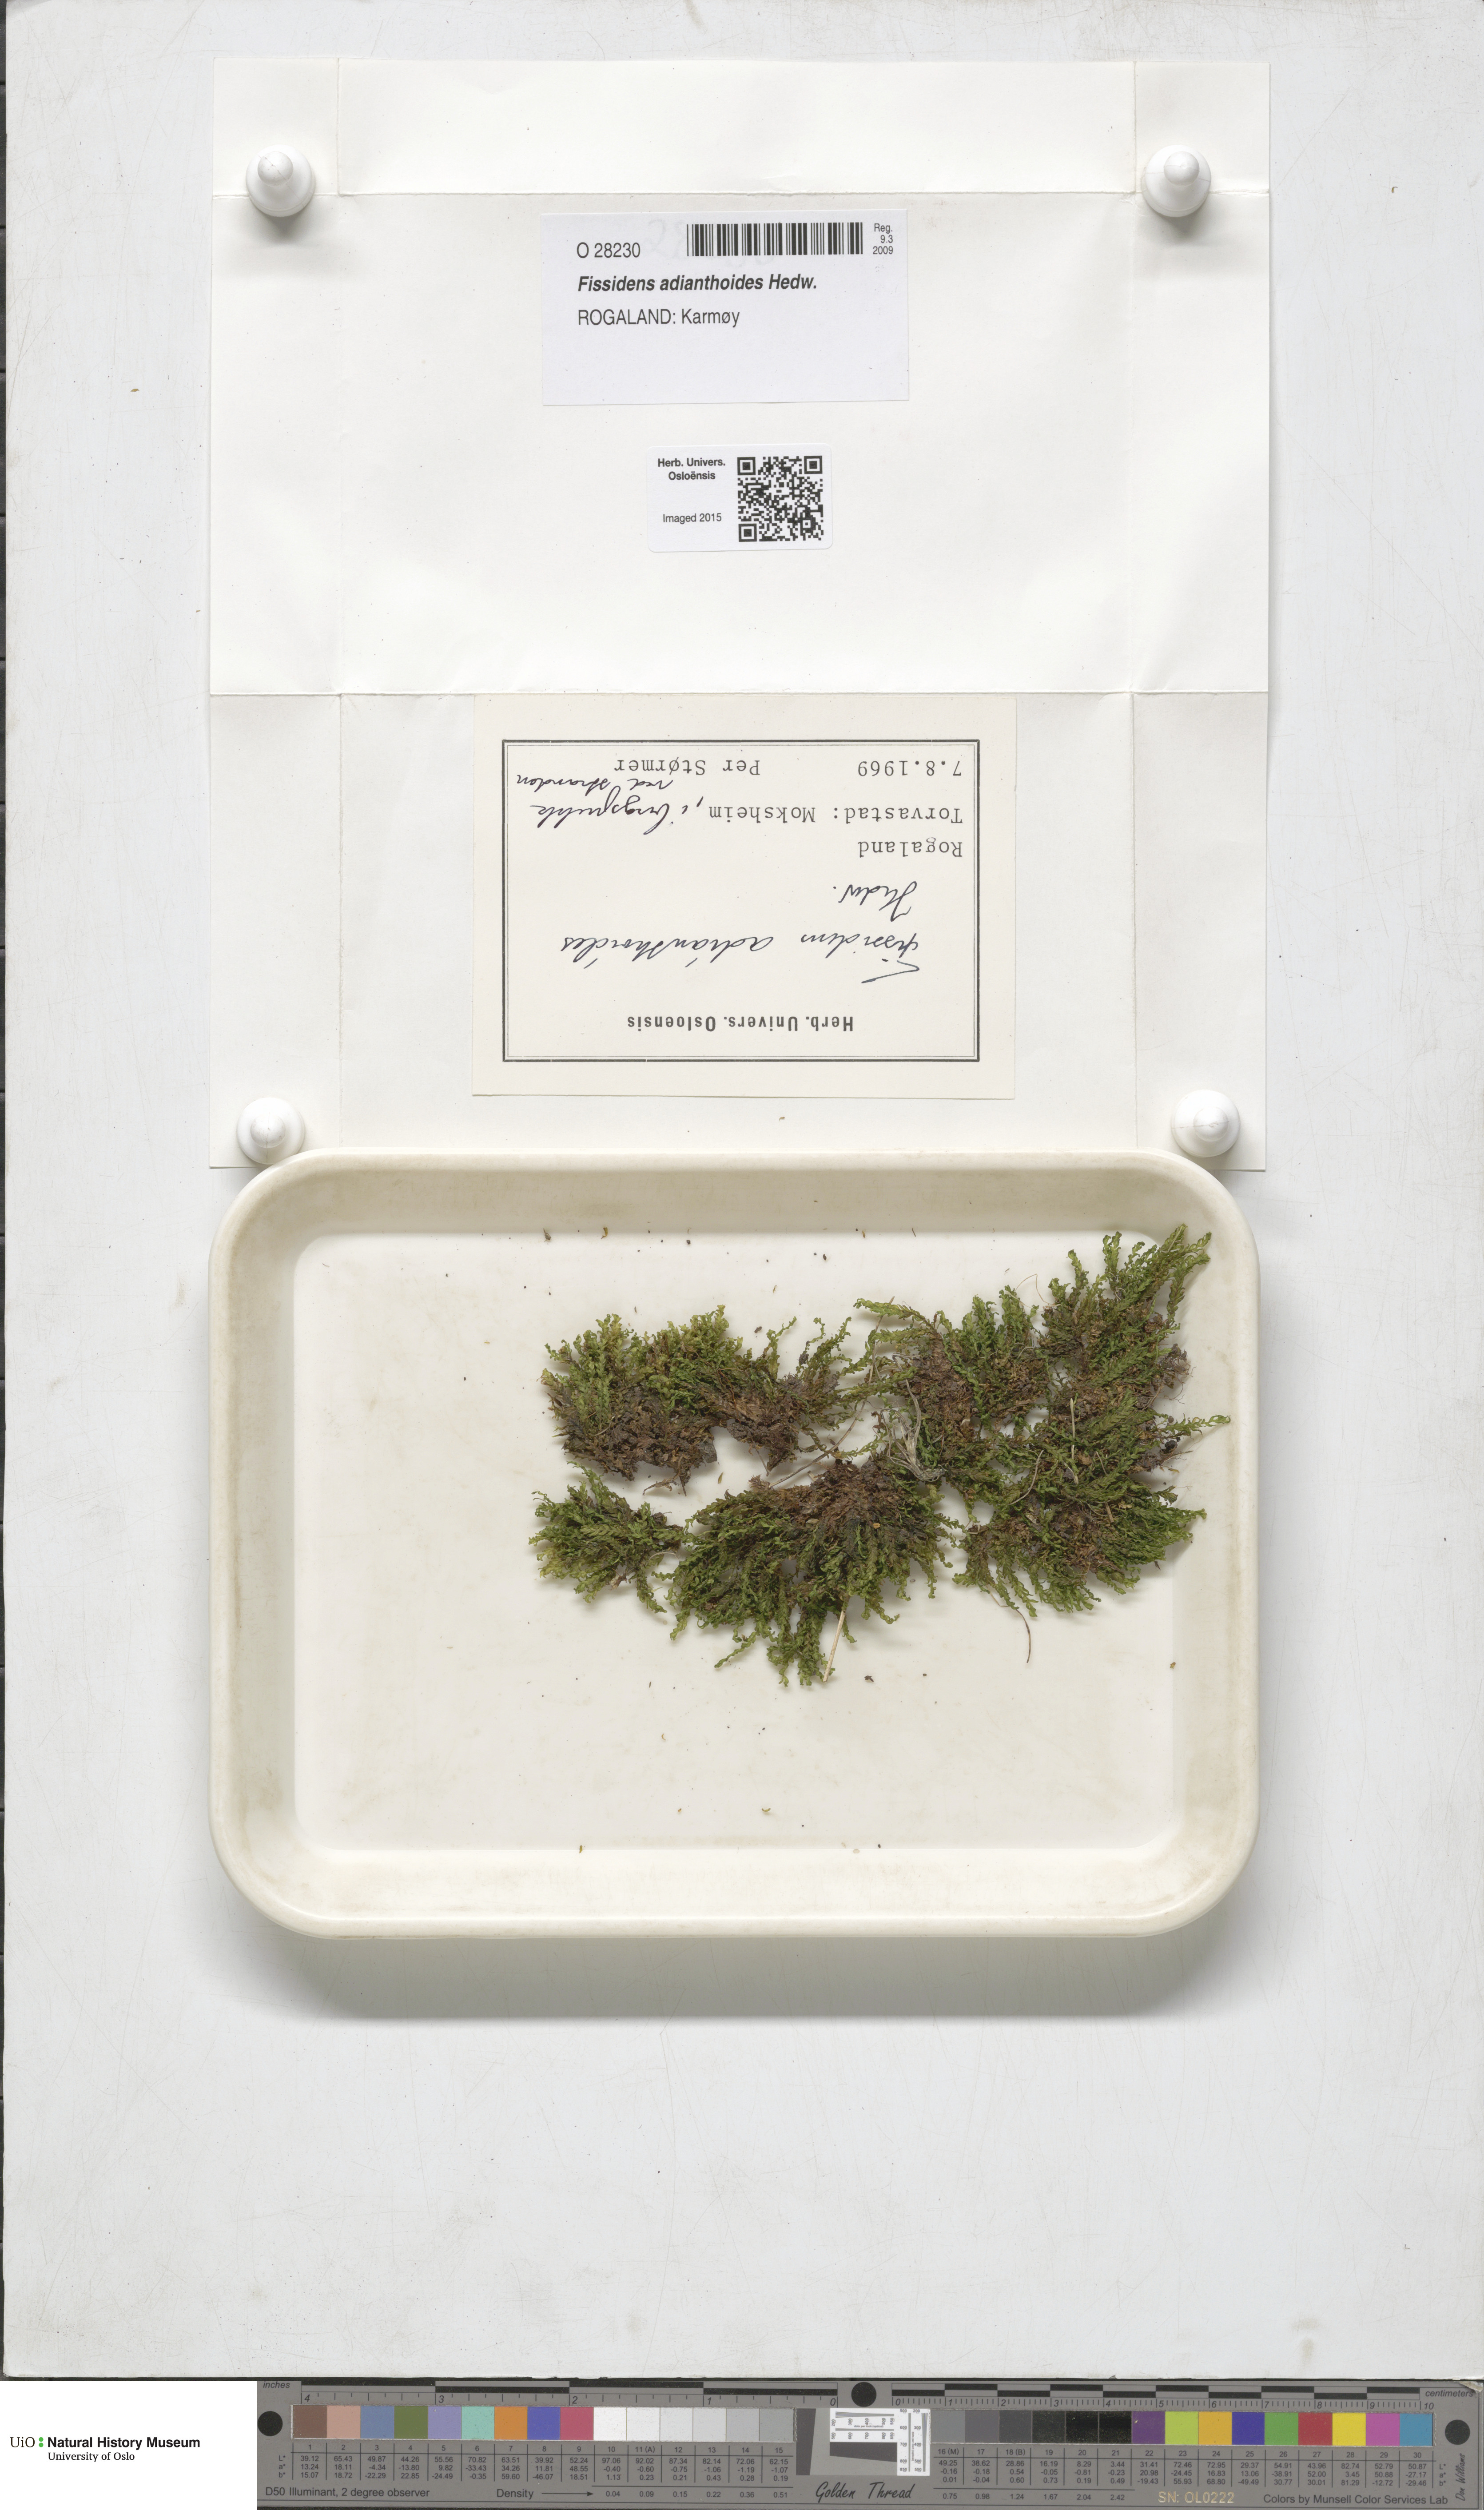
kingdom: Plantae
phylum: Bryophyta
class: Bryopsida
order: Dicranales
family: Fissidentaceae
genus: Fissidens
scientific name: Fissidens adianthoides
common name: Maidenhair pocket moss
